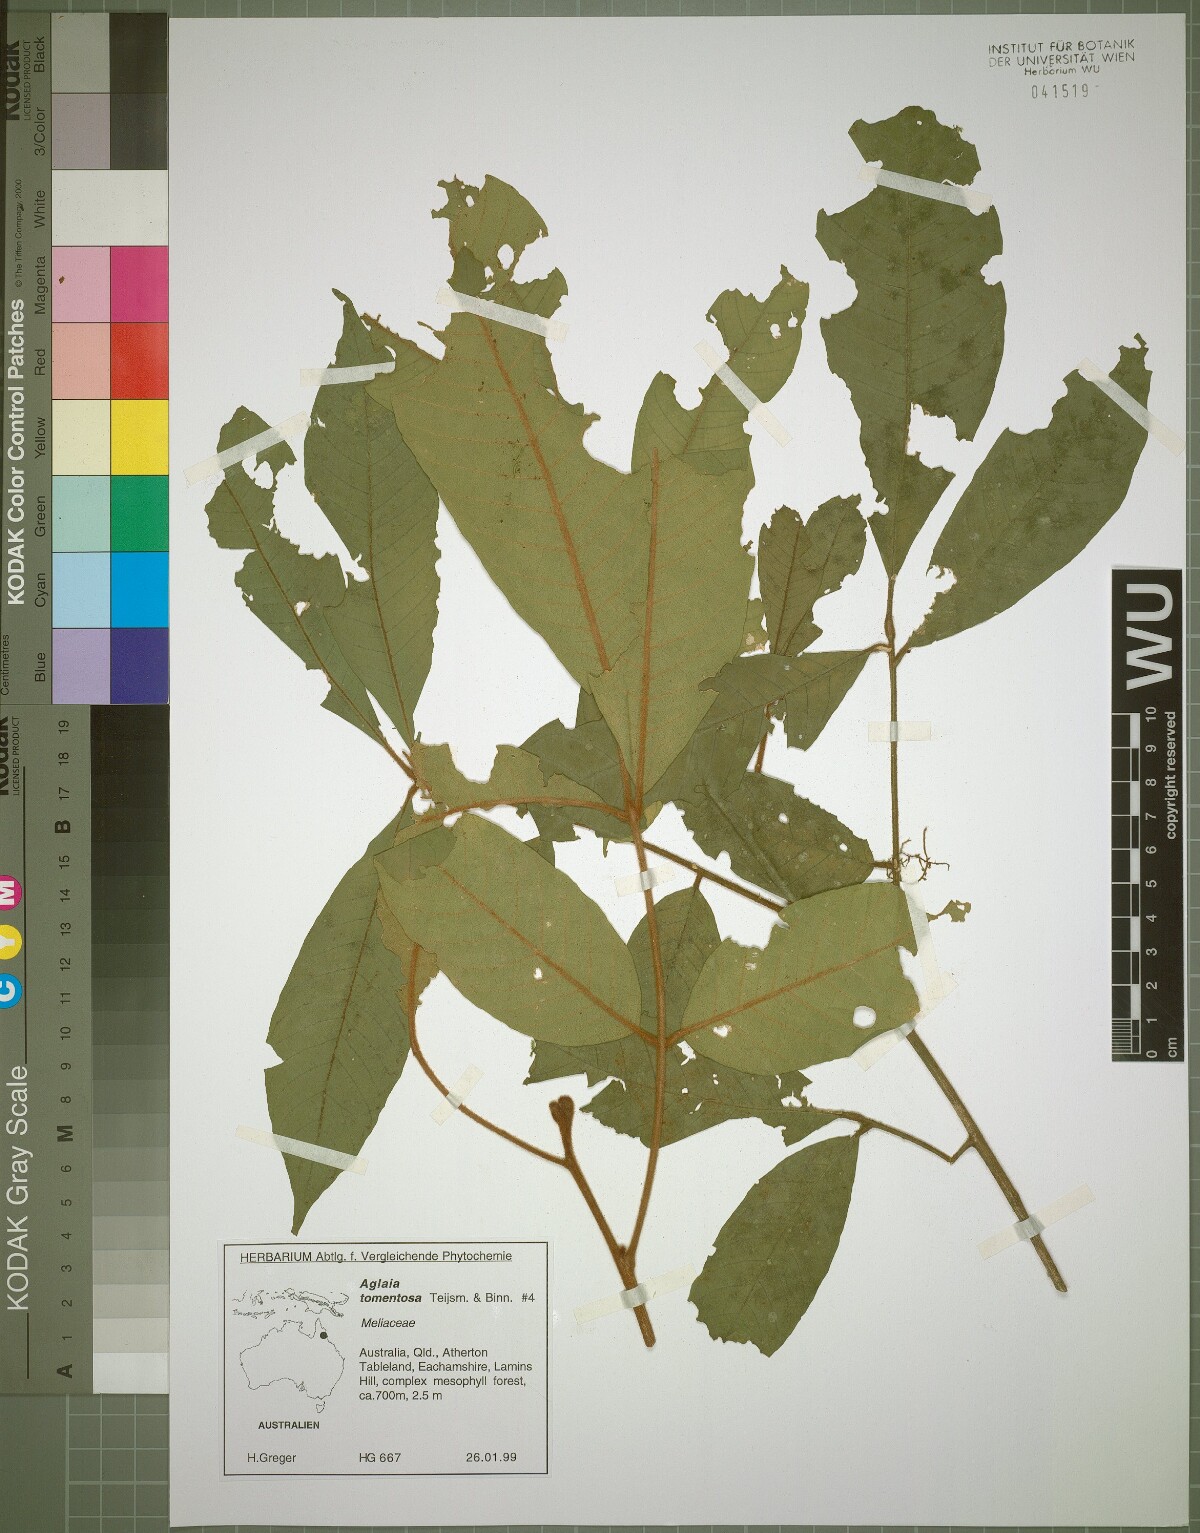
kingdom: Plantae
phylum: Tracheophyta
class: Magnoliopsida
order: Sapindales
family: Meliaceae
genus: Aglaia
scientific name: Aglaia tomentosa
